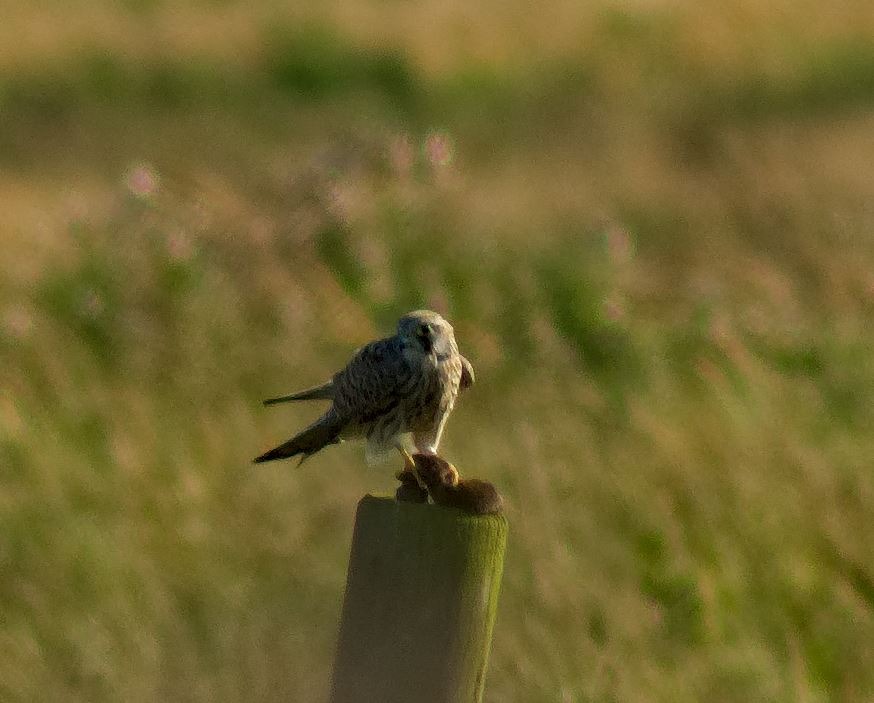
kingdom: Animalia
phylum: Chordata
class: Aves
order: Falconiformes
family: Falconidae
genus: Falco
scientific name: Falco tinnunculus
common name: Tårnfalk
